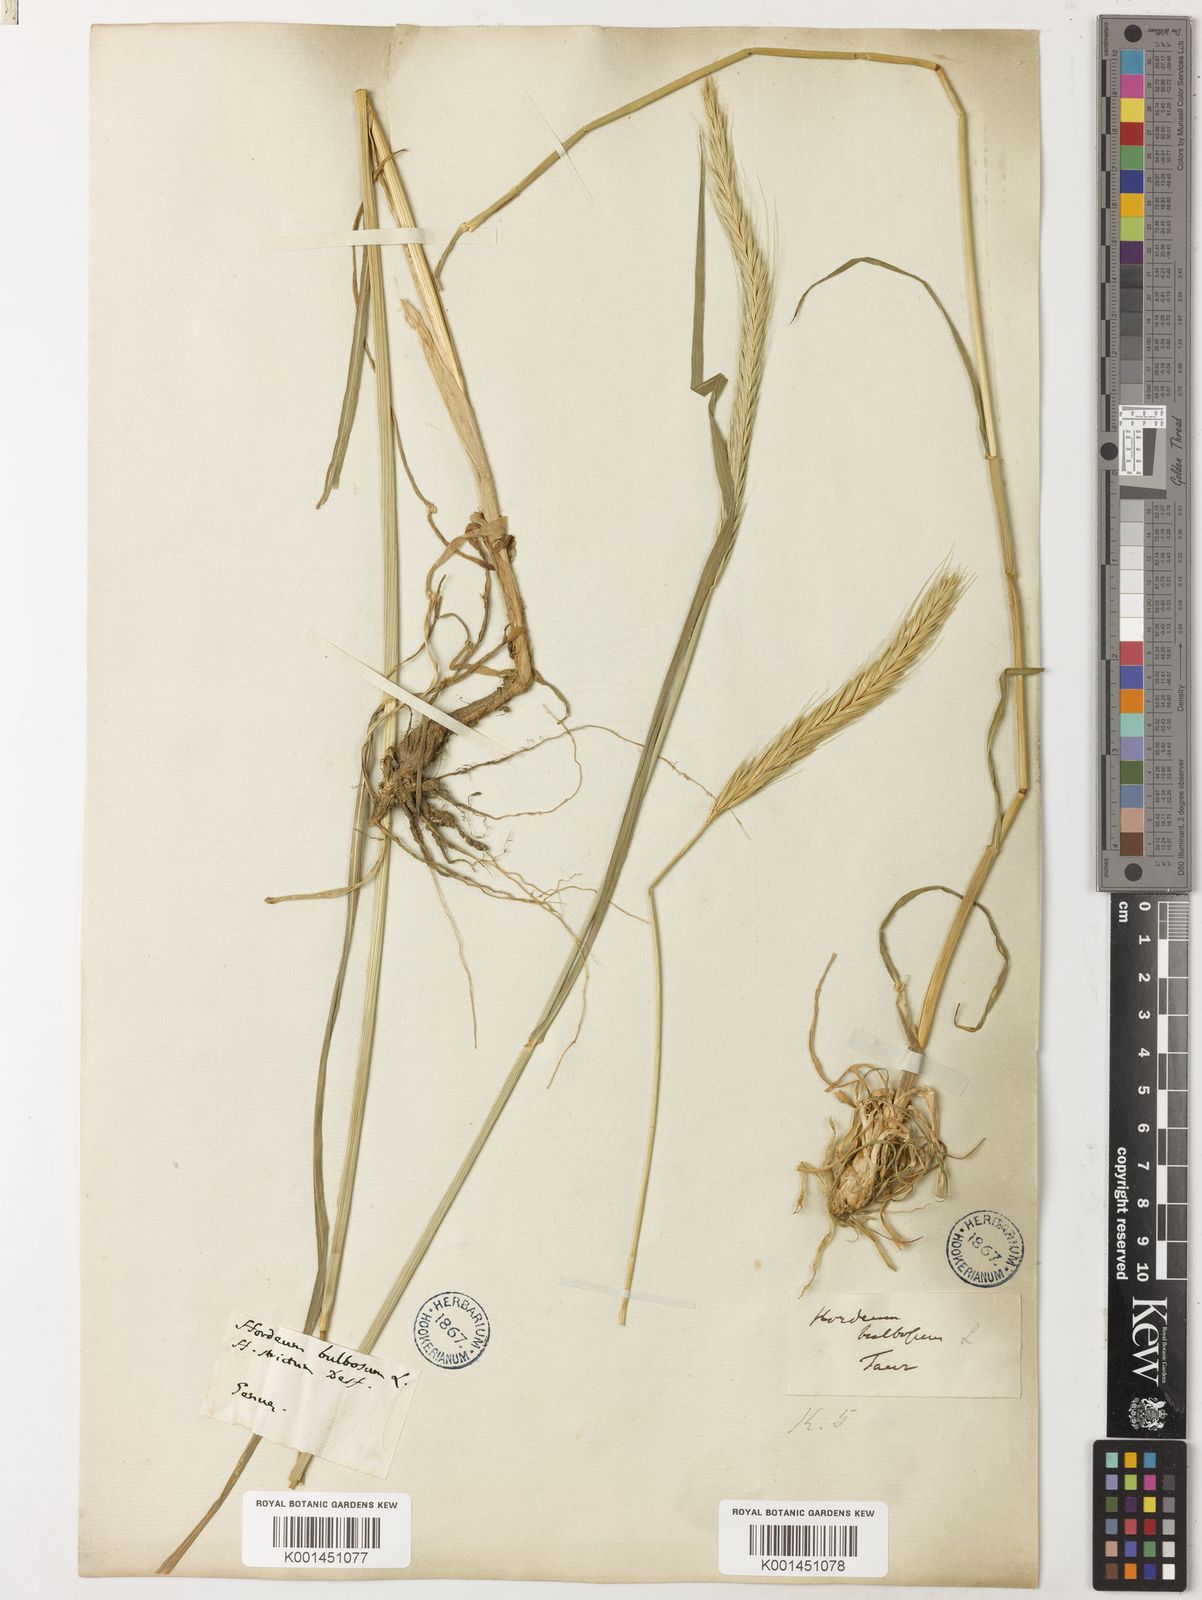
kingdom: Plantae
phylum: Tracheophyta
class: Liliopsida
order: Poales
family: Poaceae
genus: Hordeum
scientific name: Hordeum bulbosum
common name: Bulbous barley
